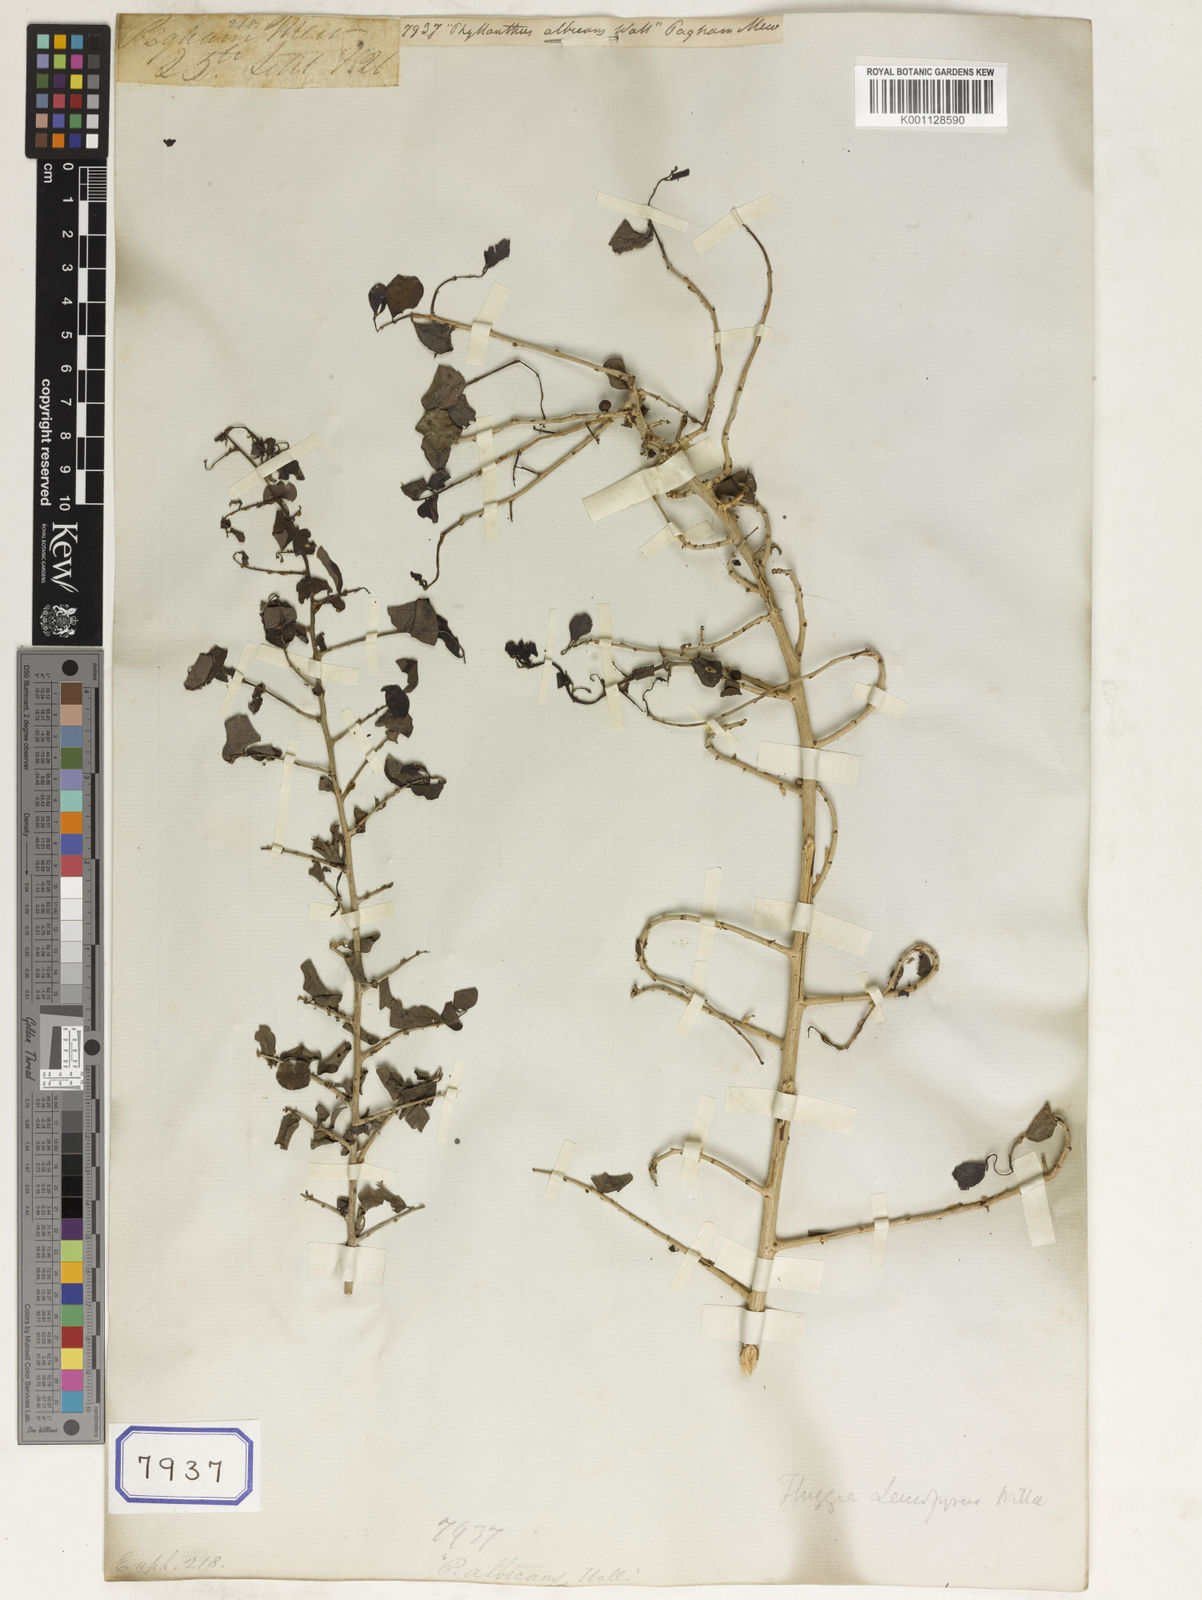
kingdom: Plantae
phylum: Tracheophyta
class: Magnoliopsida
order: Malpighiales
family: Euphorbiaceae
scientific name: Euphorbiaceae
